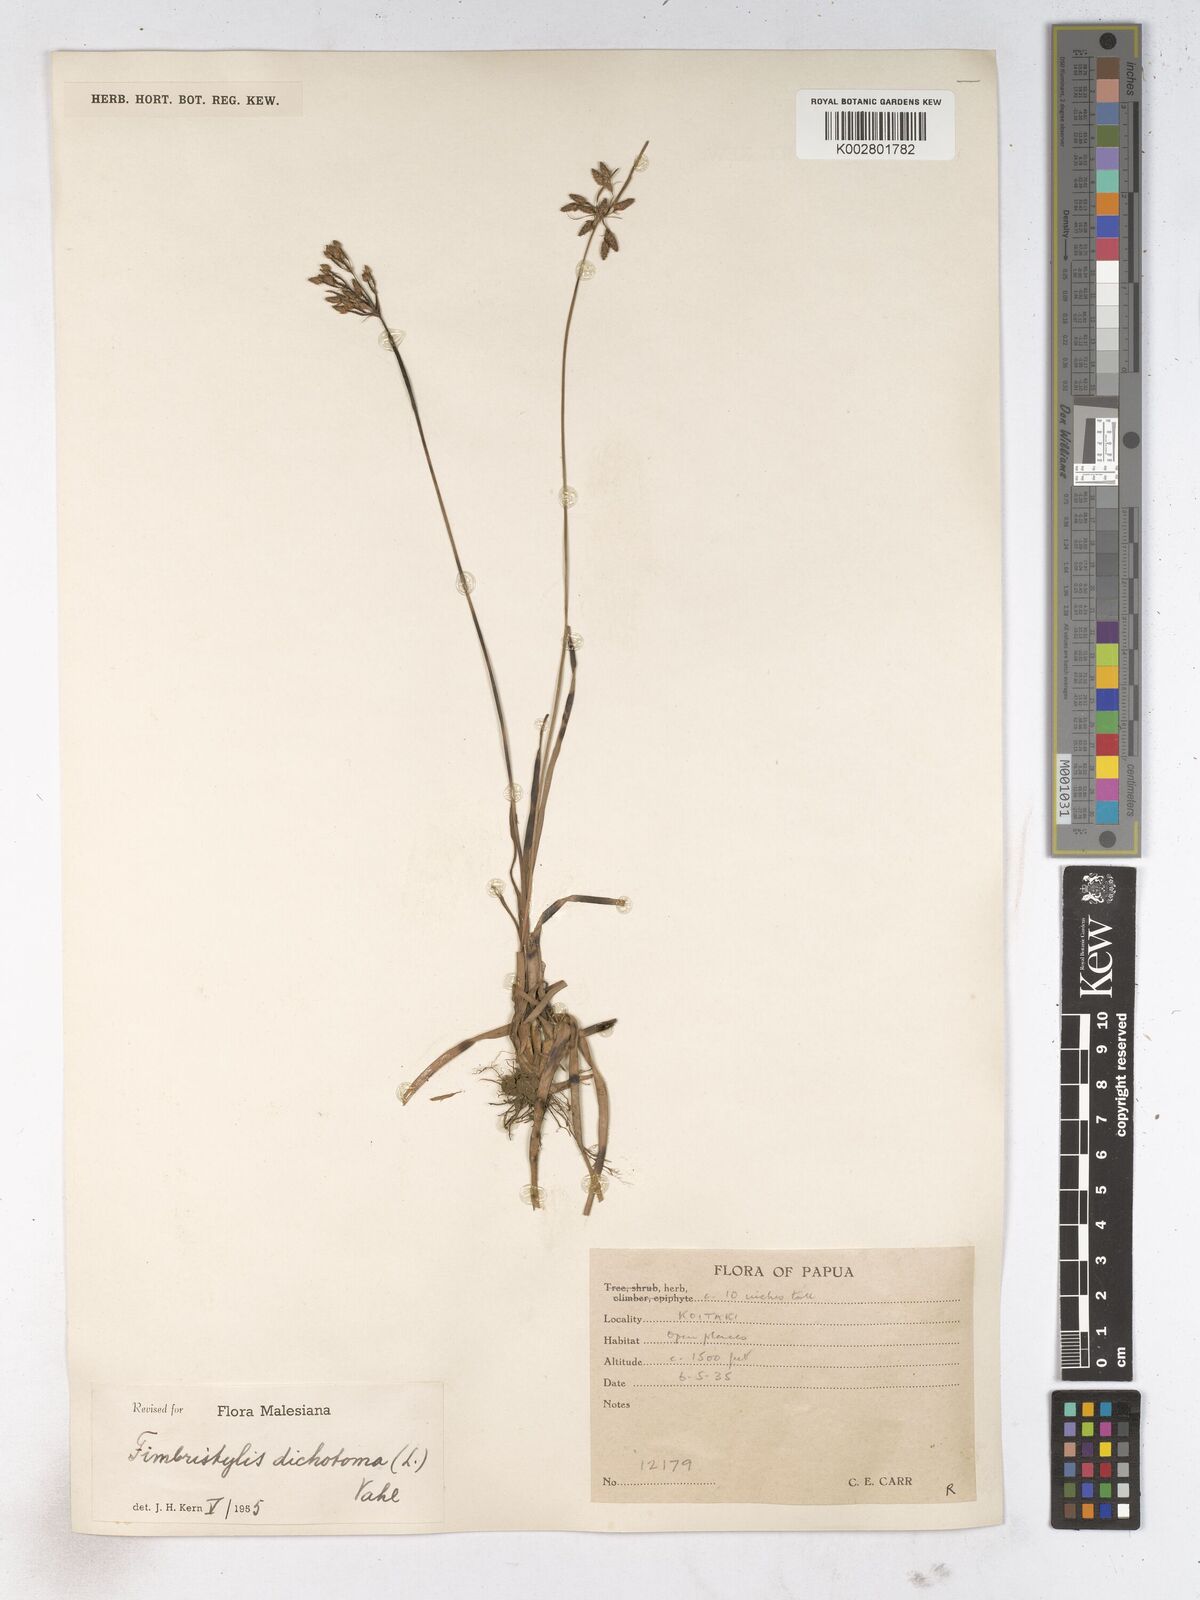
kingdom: Plantae
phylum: Tracheophyta
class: Liliopsida
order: Poales
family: Cyperaceae
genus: Fimbristylis
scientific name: Fimbristylis dichotoma
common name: Forked fimbry
